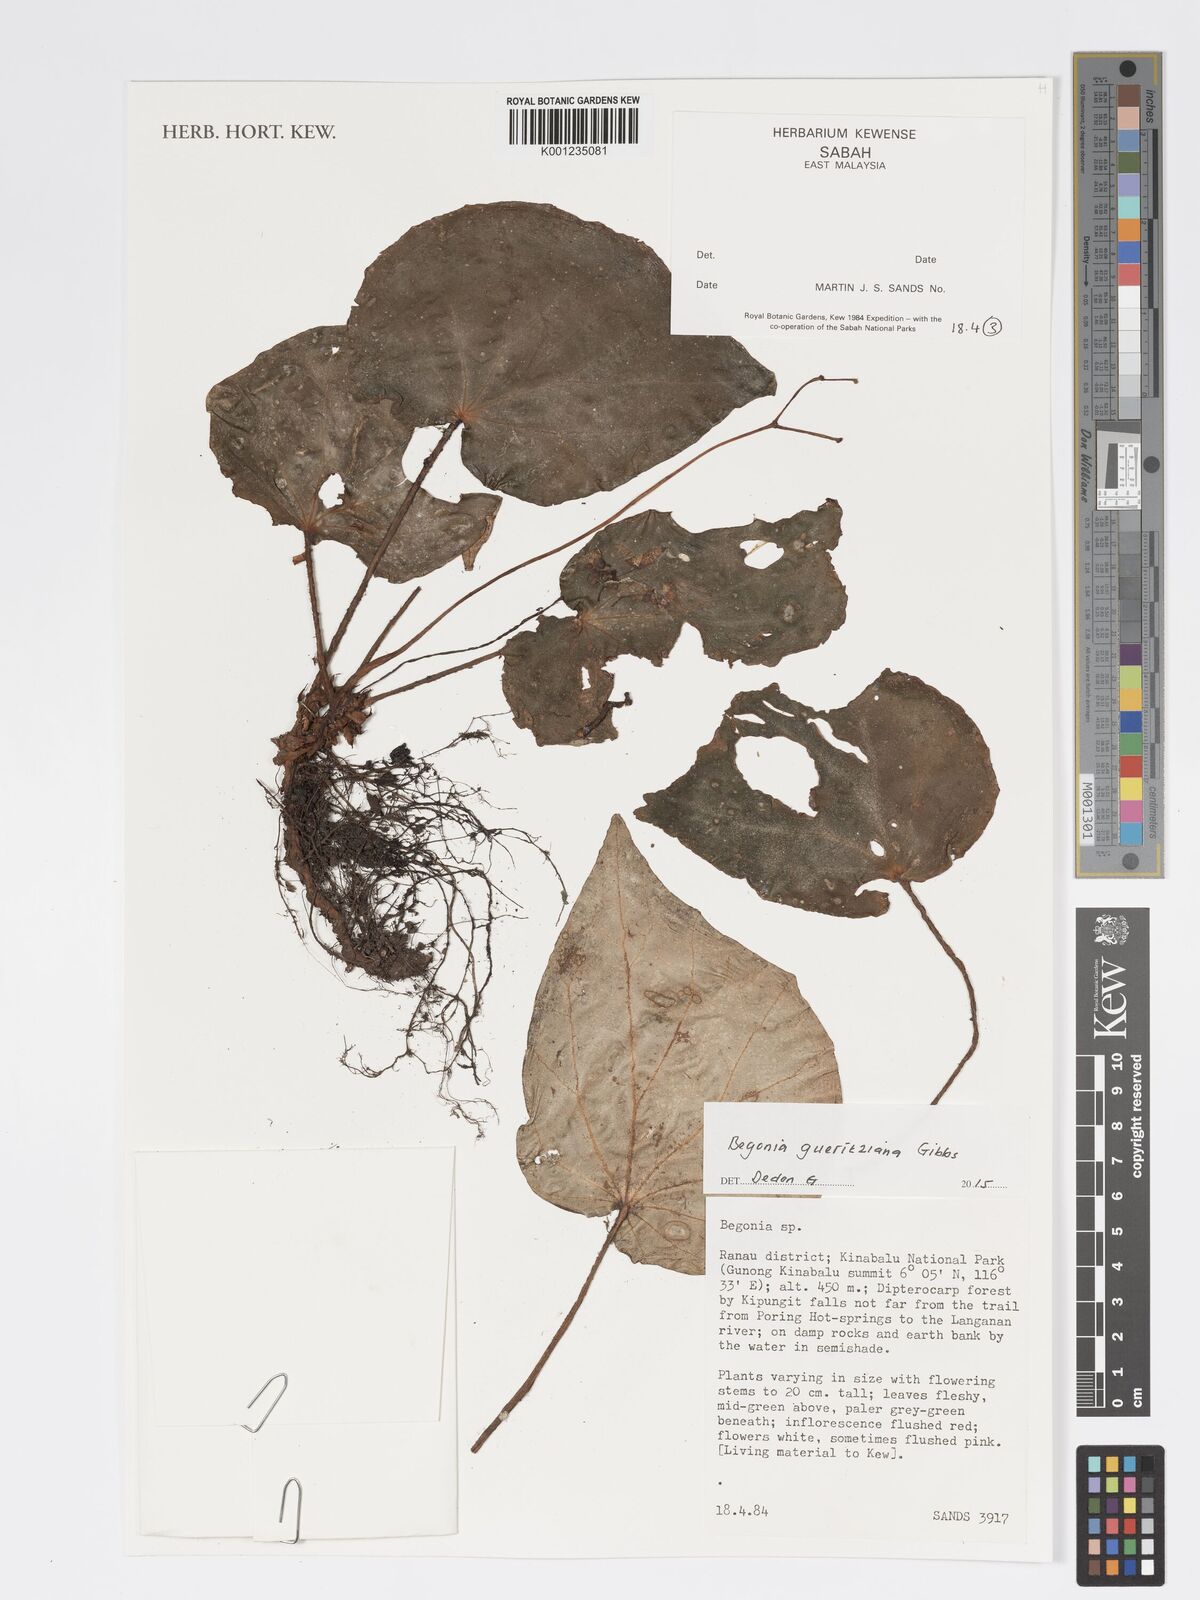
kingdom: Plantae
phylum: Tracheophyta
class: Magnoliopsida
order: Cucurbitales
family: Begoniaceae
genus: Begonia
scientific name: Begonia gueritziana
